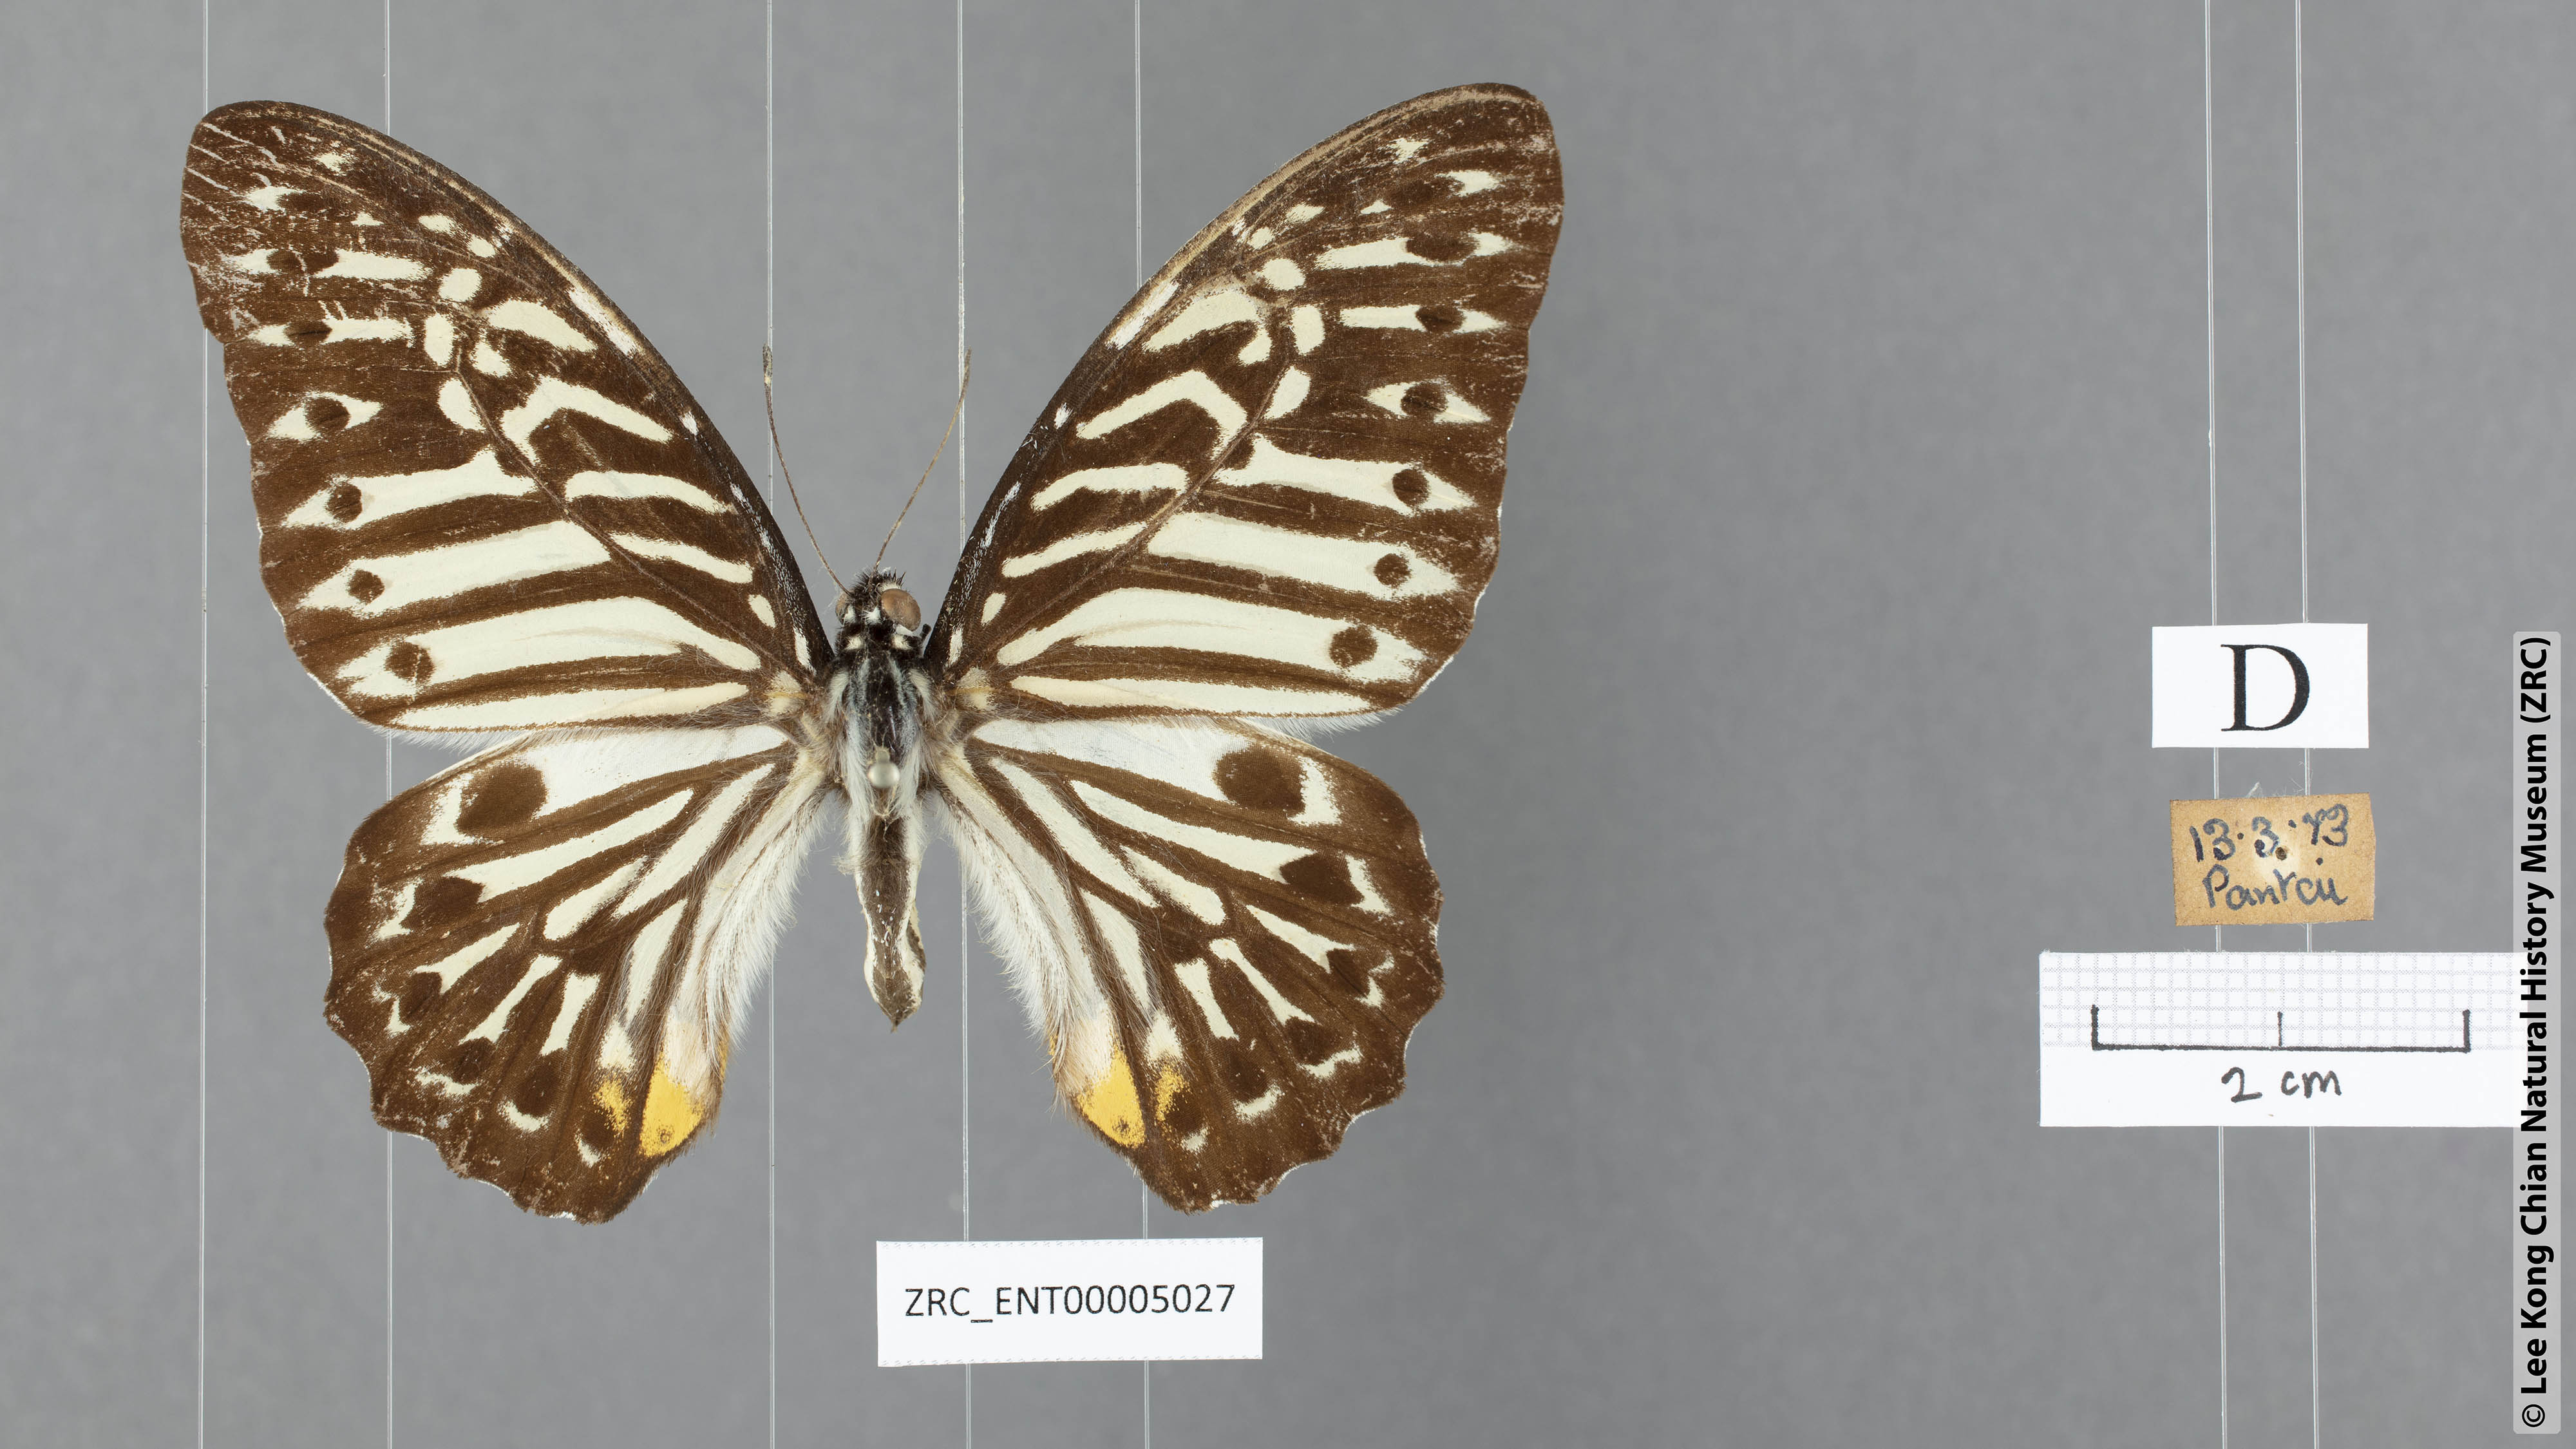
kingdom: Animalia
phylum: Arthropoda
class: Insecta
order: Lepidoptera
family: Papilionidae
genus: Graphium
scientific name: Graphium delesserti
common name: Malayan zebra
